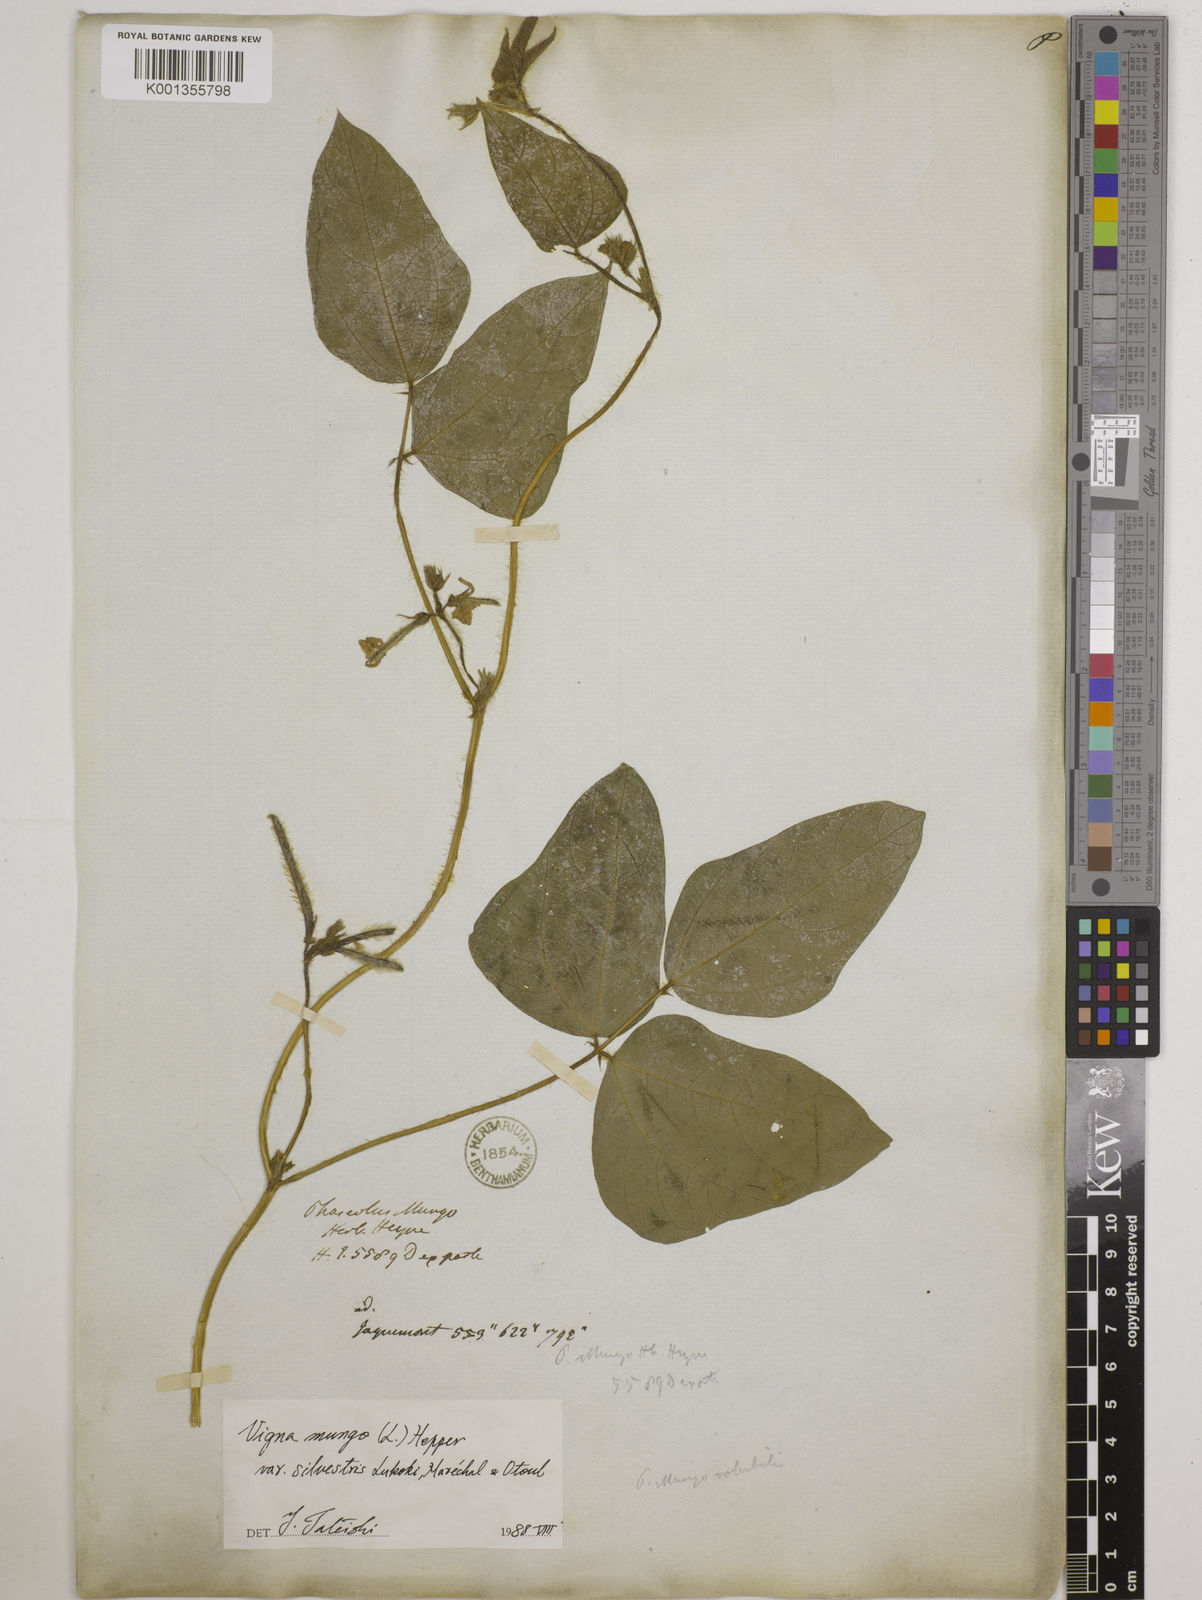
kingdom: Plantae
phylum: Tracheophyta
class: Magnoliopsida
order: Fabales
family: Fabaceae
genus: Vigna
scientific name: Vigna mungo
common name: Black gram
